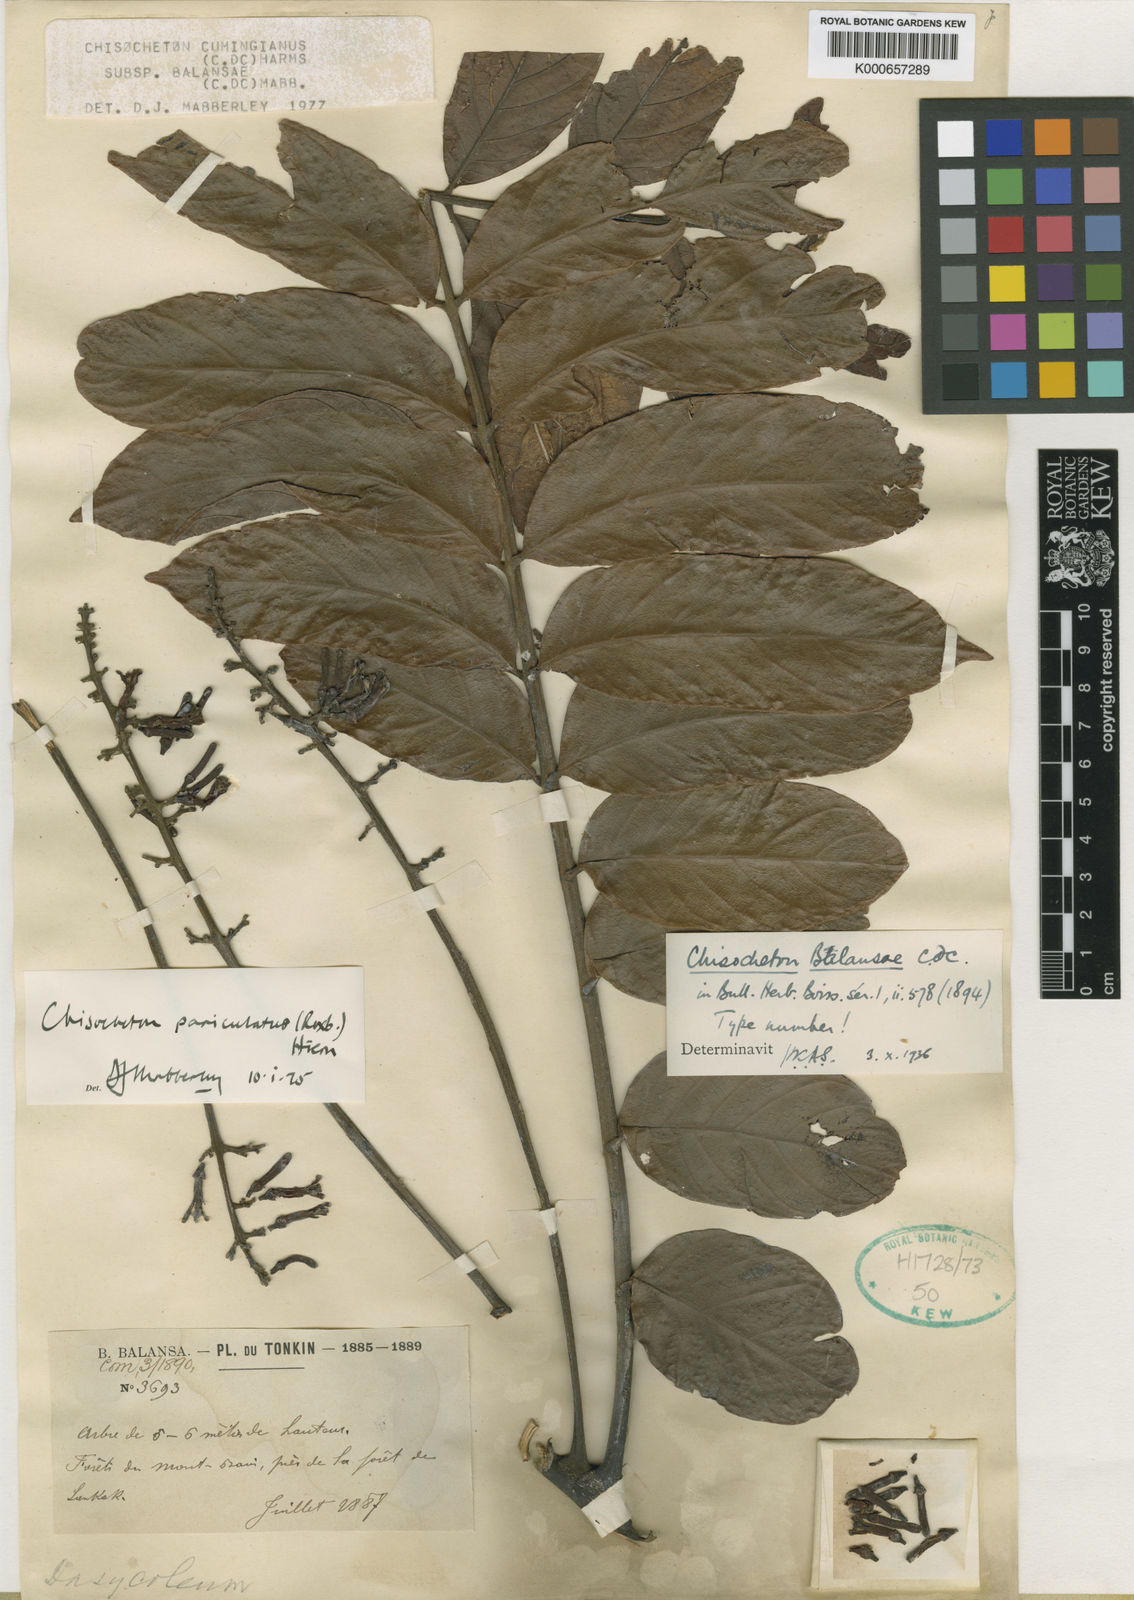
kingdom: Plantae
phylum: Tracheophyta
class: Magnoliopsida
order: Sapindales
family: Meliaceae
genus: Chisocheton
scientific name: Chisocheton cumingianus
